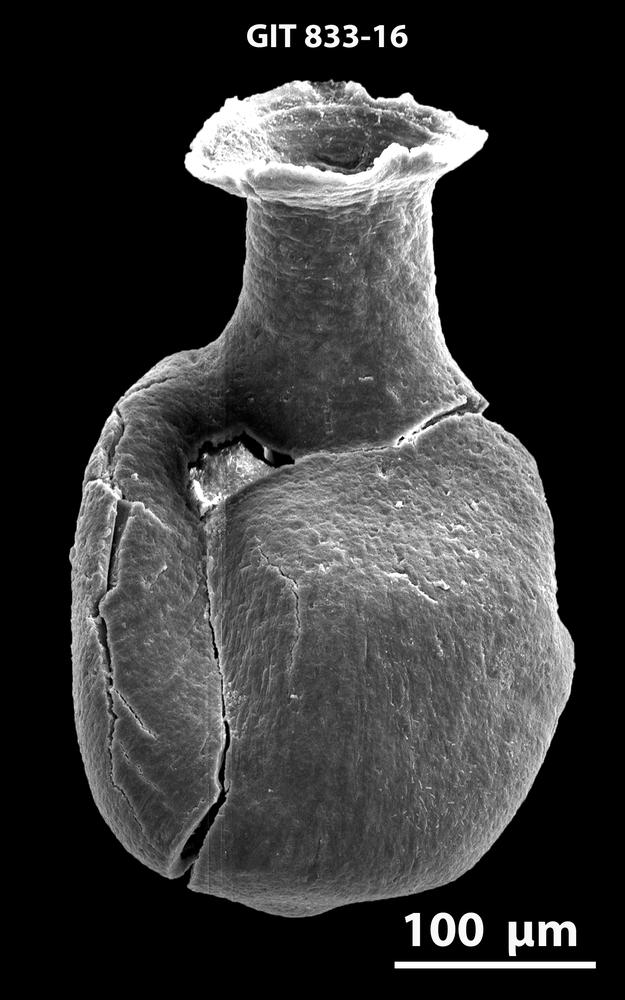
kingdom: Animalia
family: Lagenochitinidae
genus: Lagenochitina
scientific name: Lagenochitina
